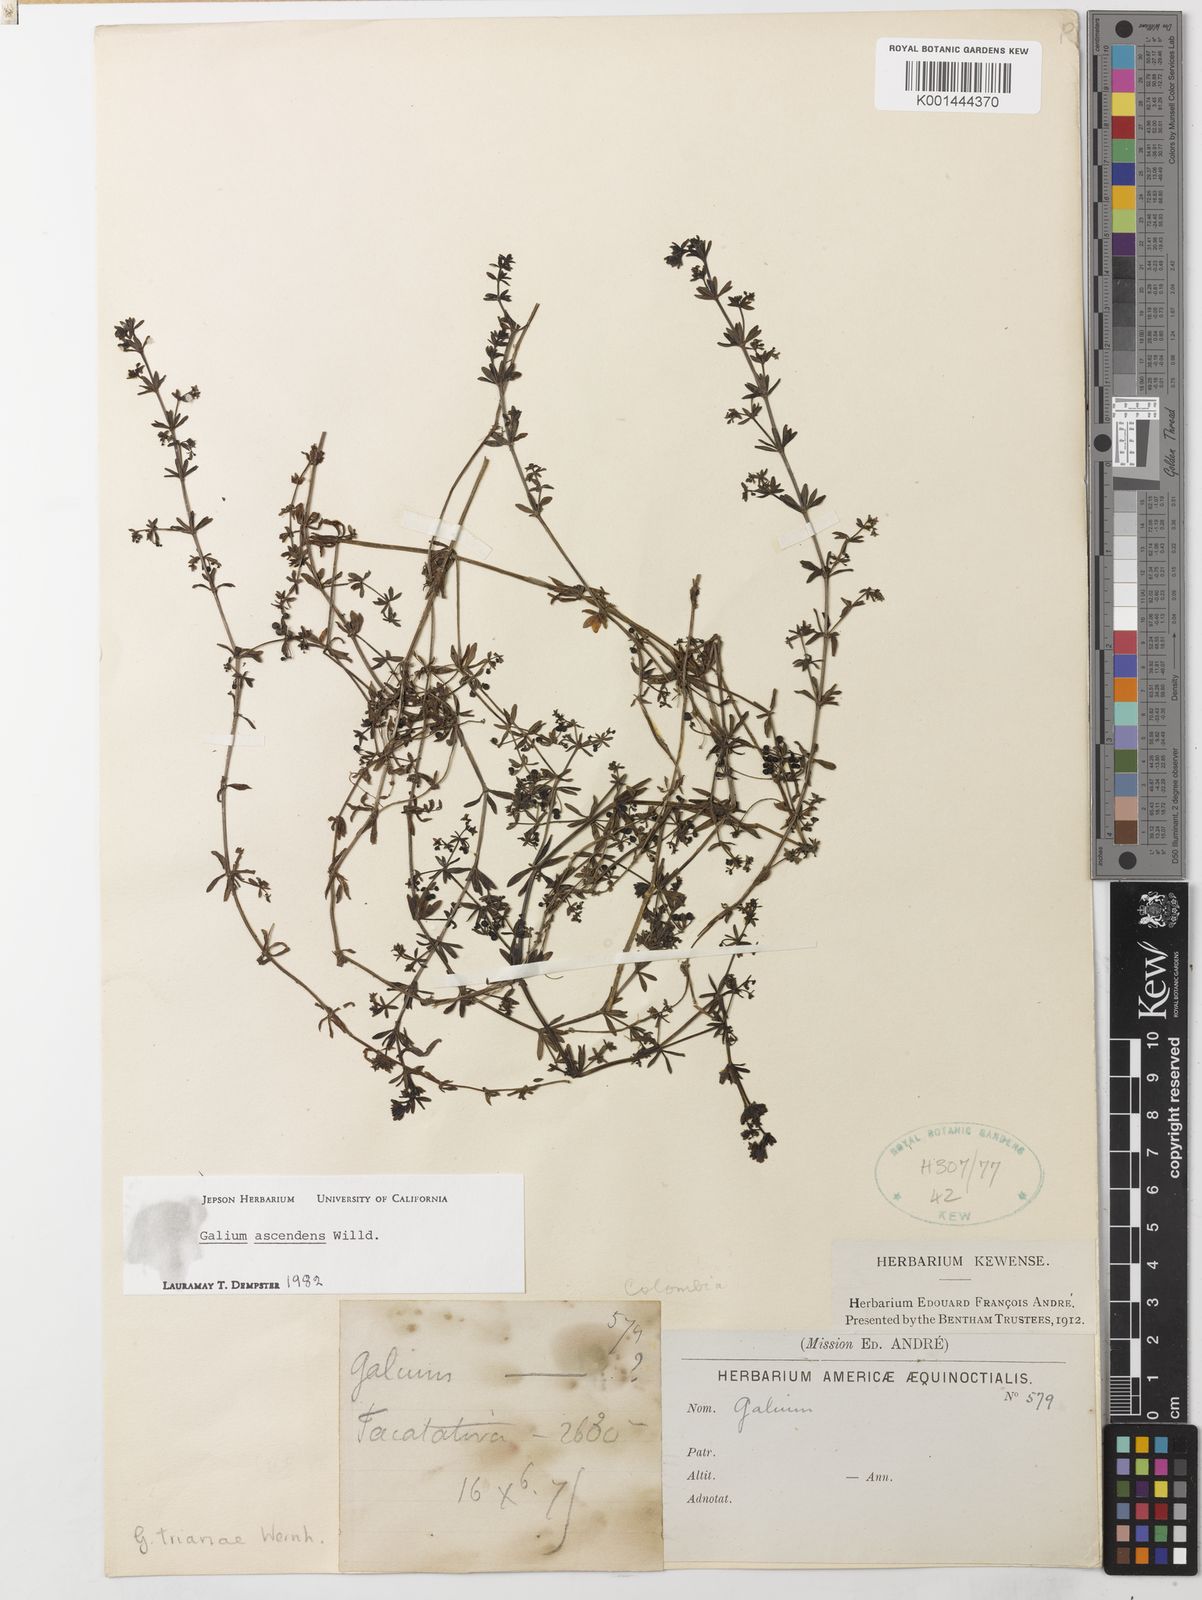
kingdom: Plantae
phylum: Tracheophyta
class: Magnoliopsida
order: Gentianales
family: Rubiaceae
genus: Galium
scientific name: Galium ascendens
